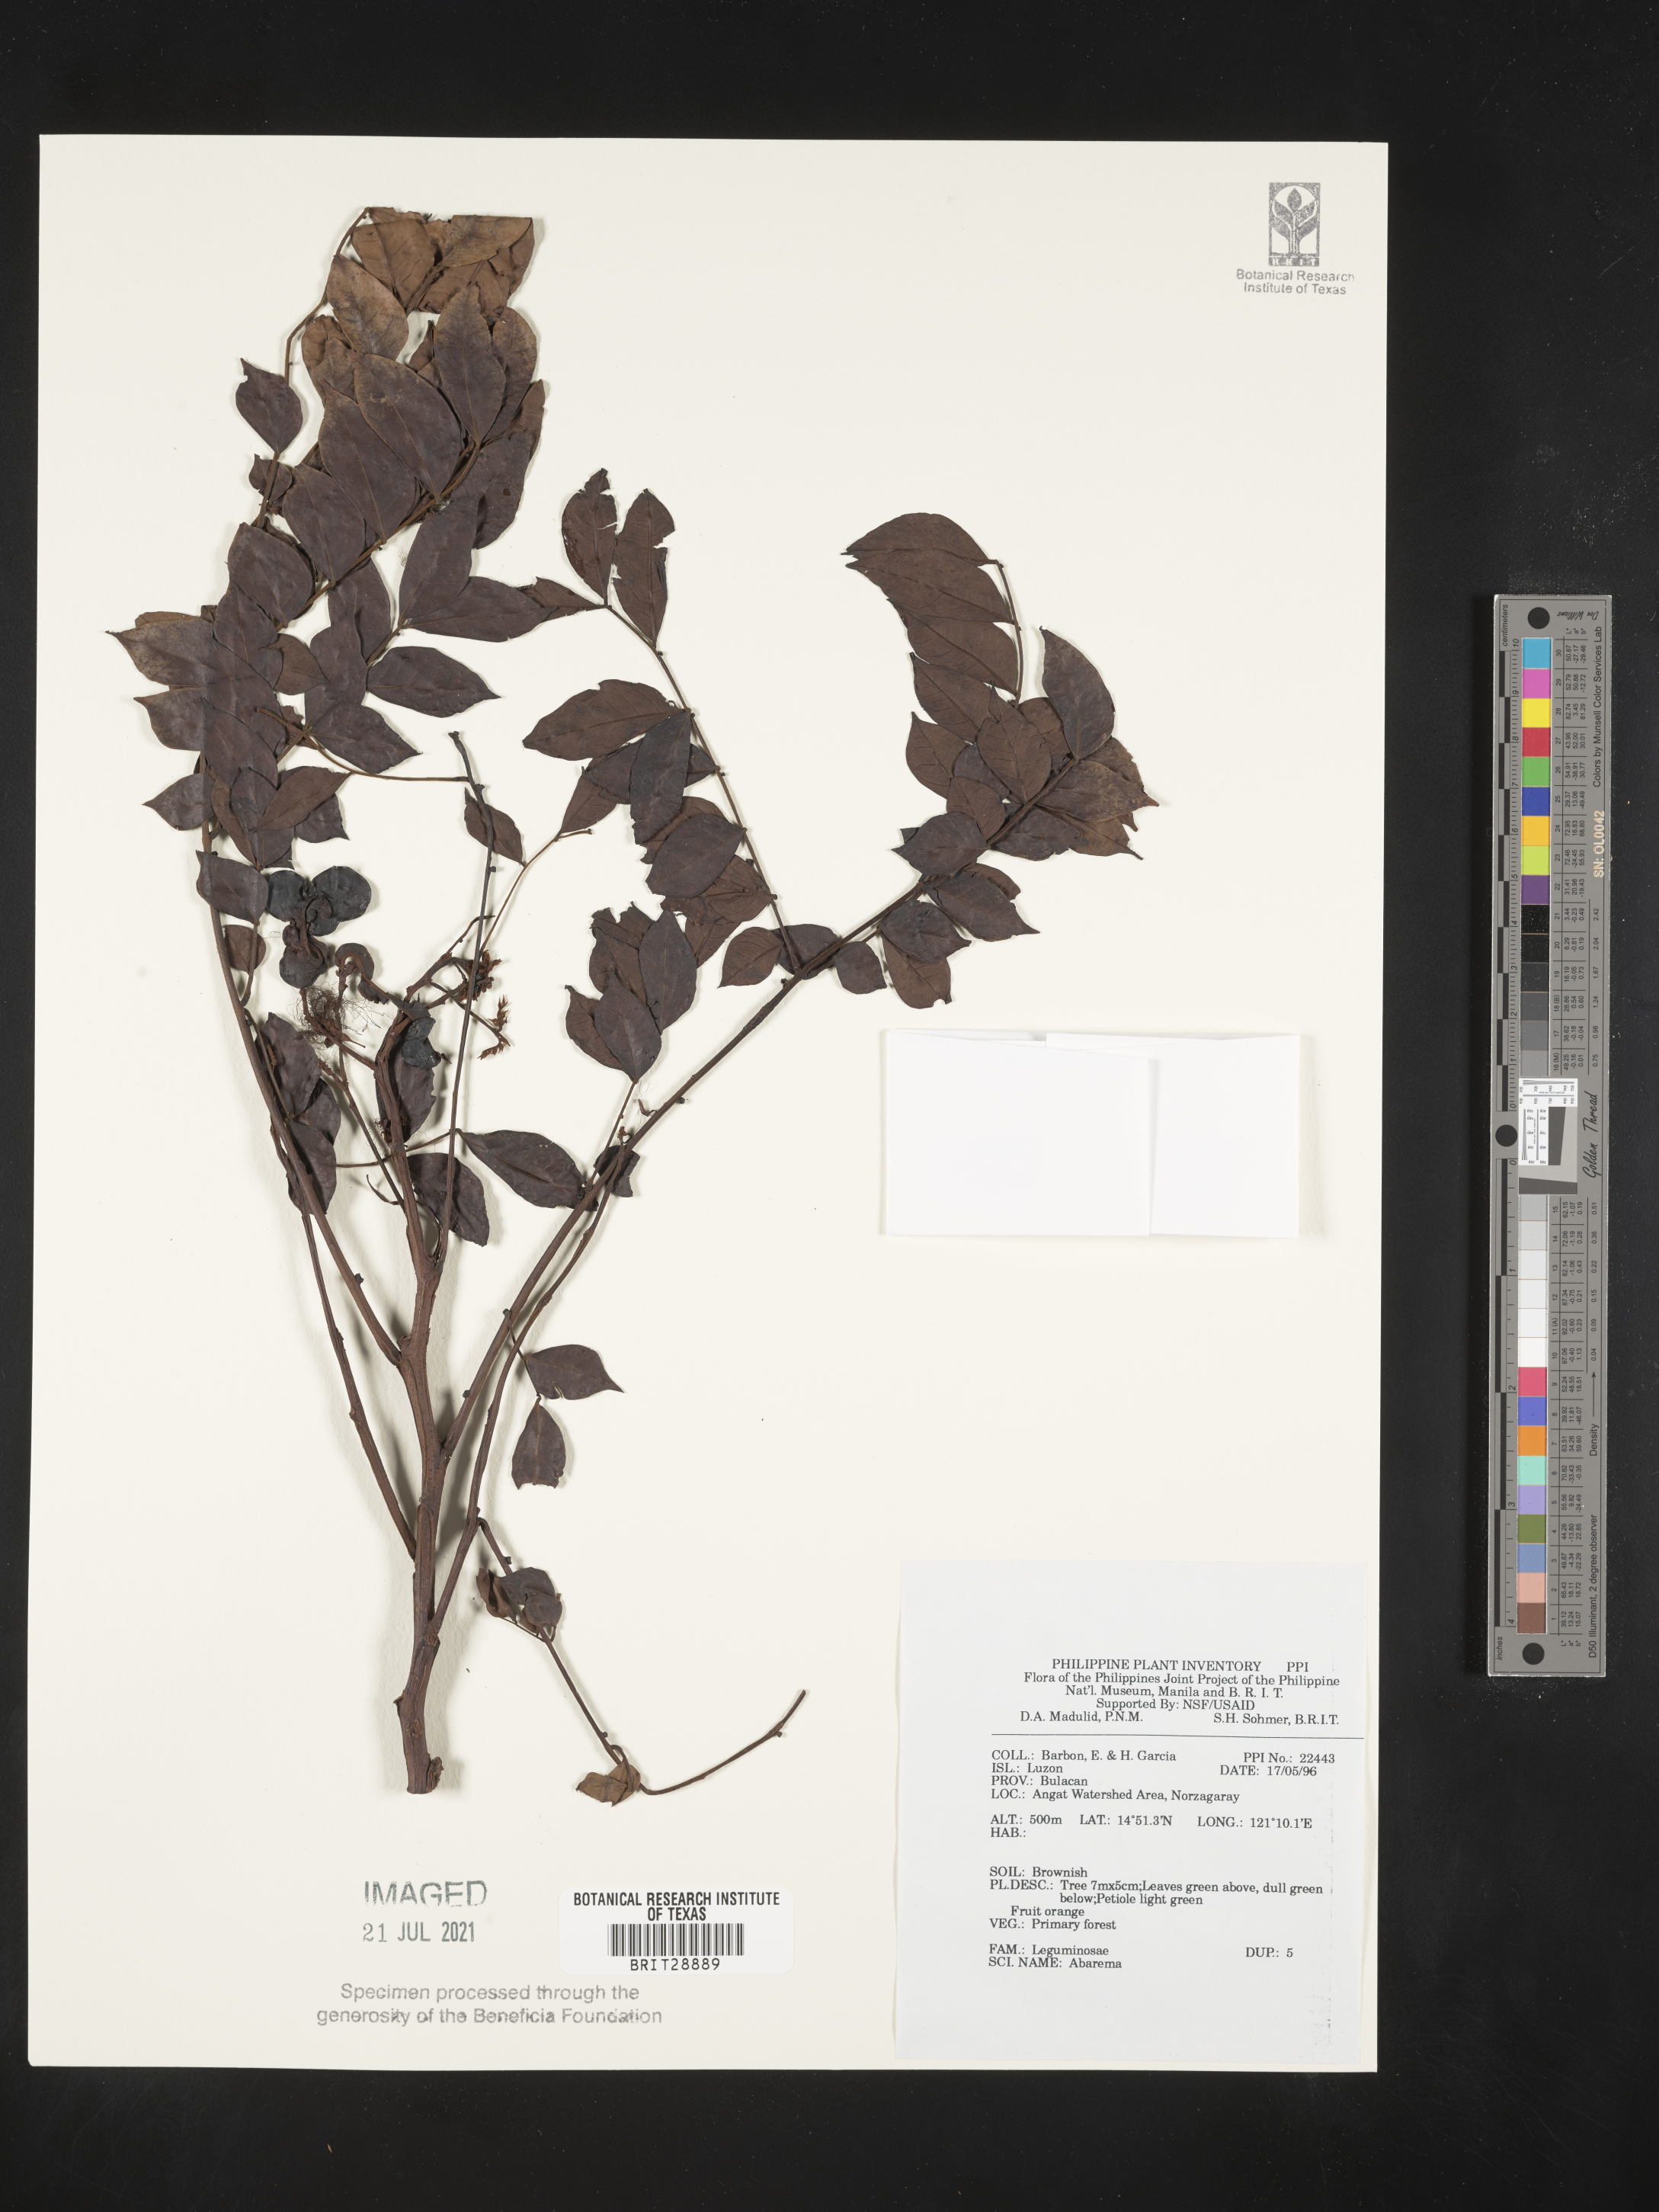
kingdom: Plantae
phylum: Tracheophyta
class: Magnoliopsida
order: Fabales
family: Fabaceae
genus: Abarema
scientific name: Abarema
